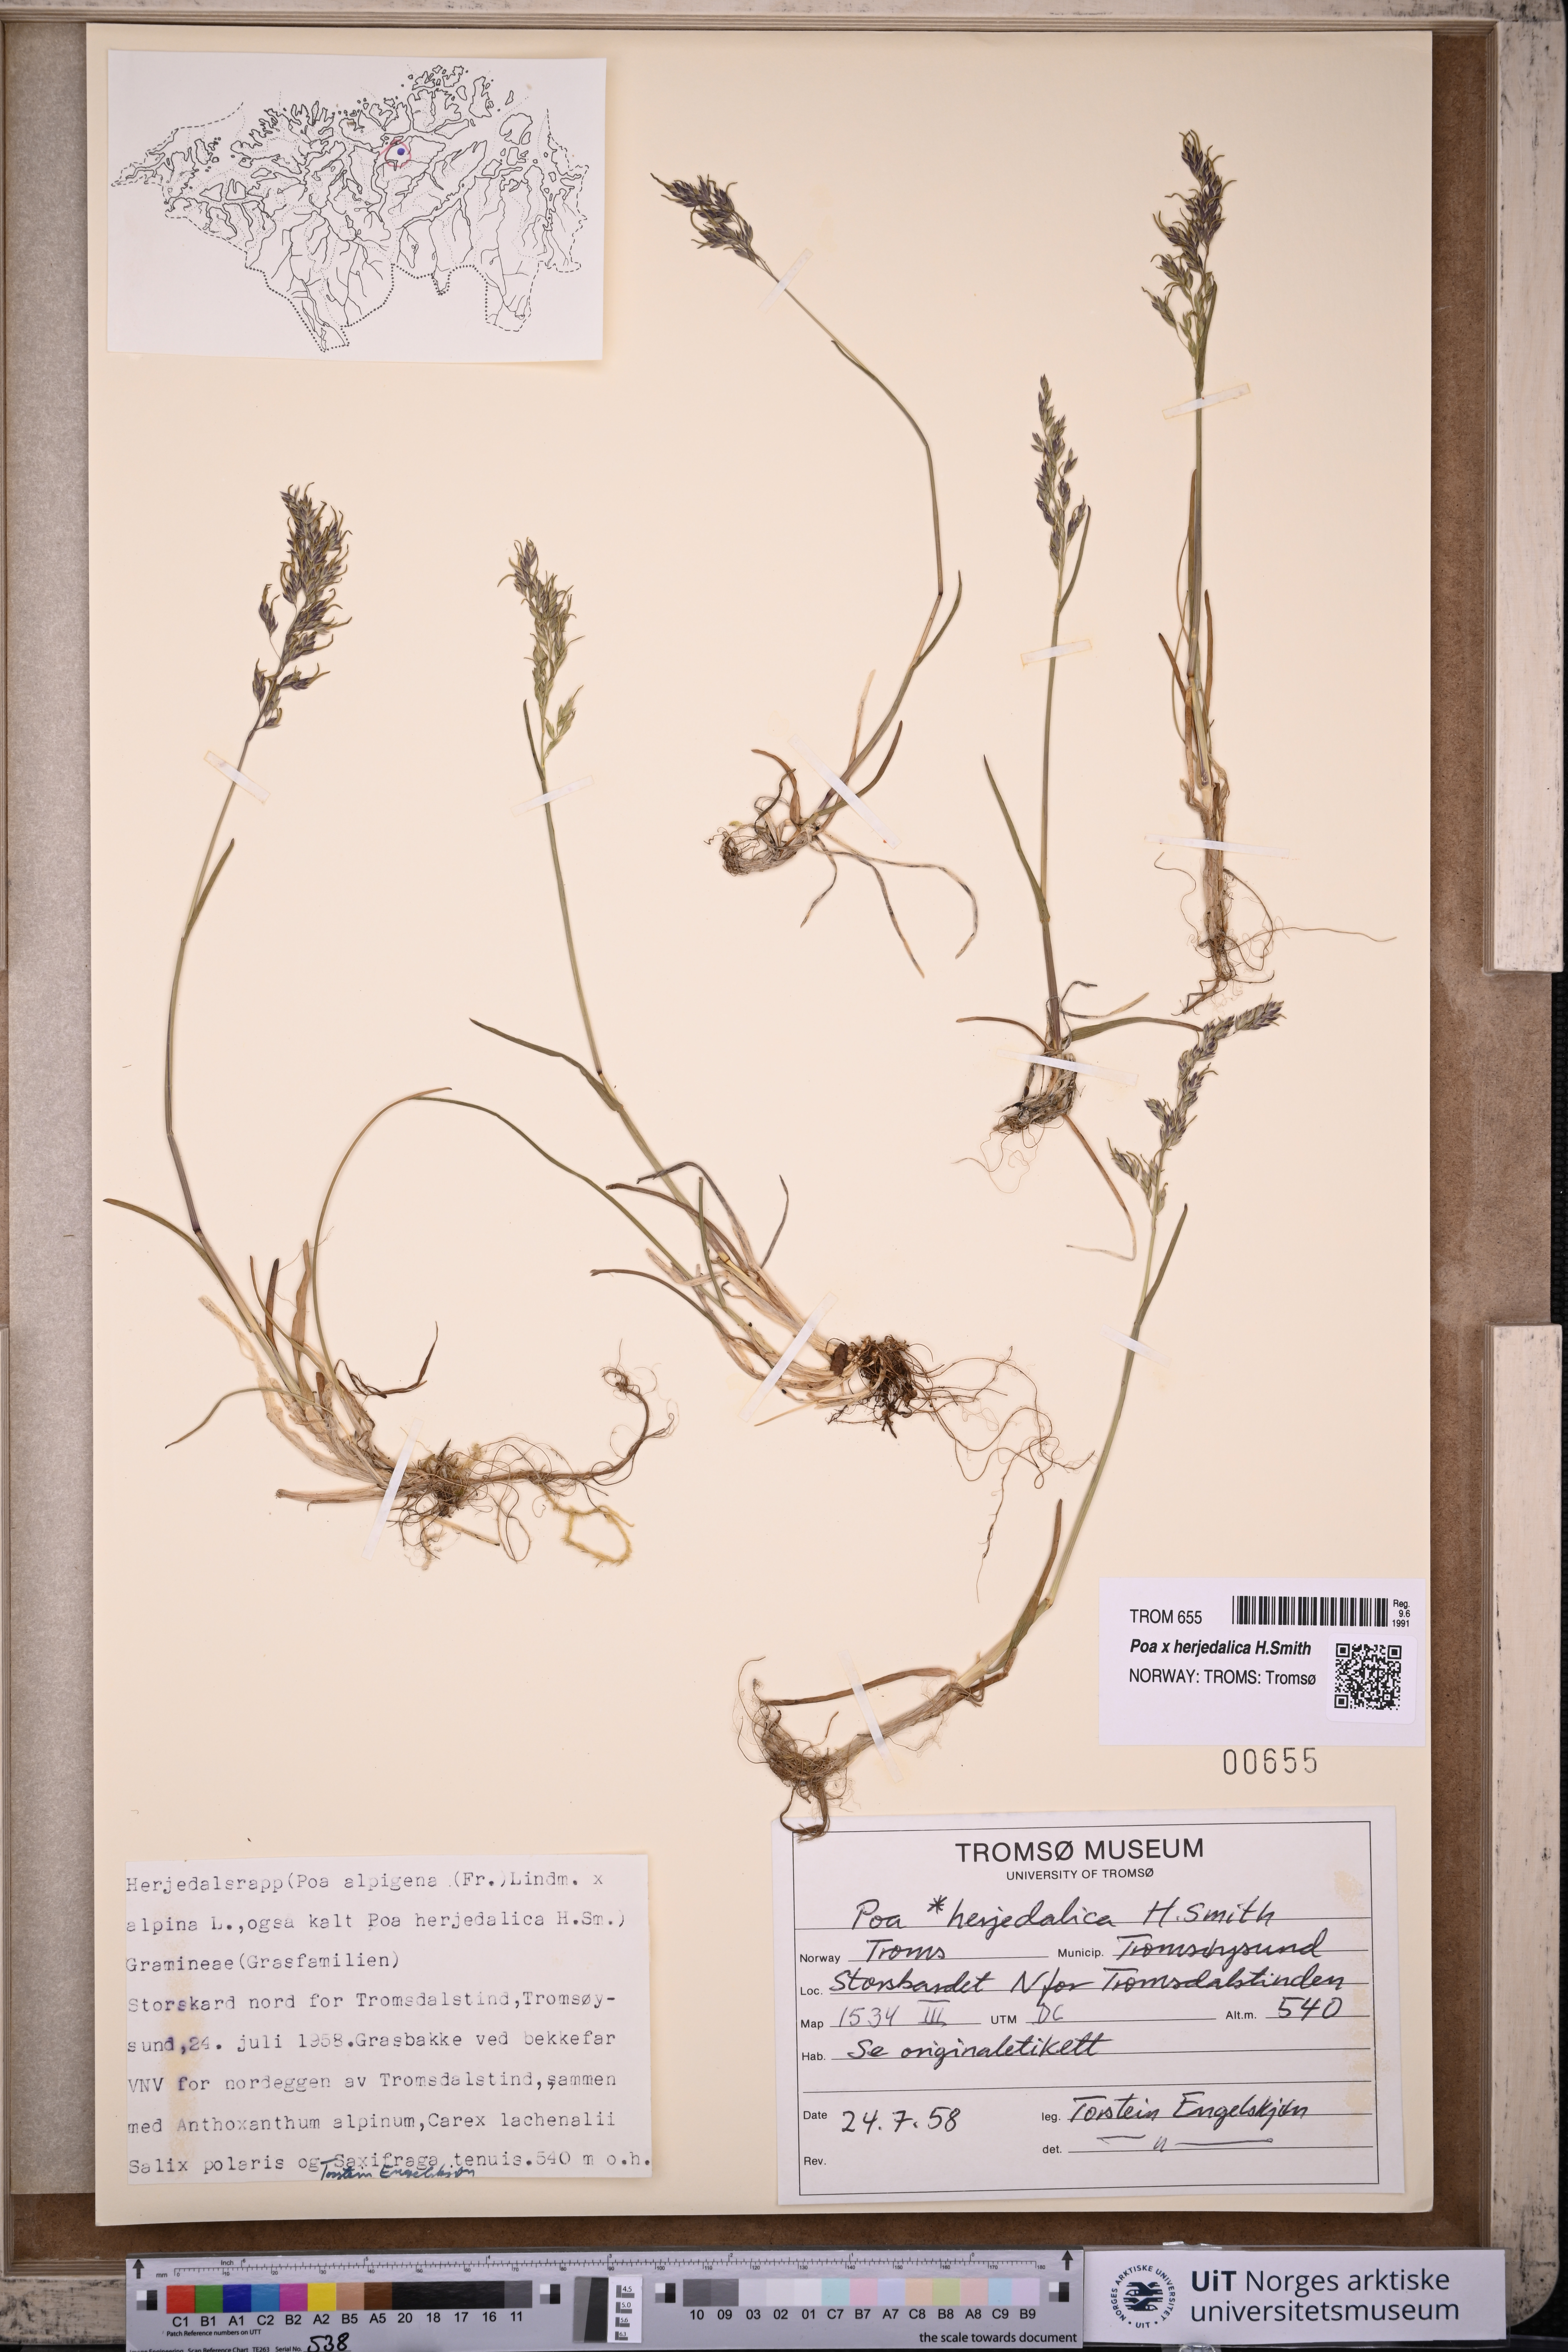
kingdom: Plantae
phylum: Tracheophyta
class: Liliopsida
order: Poales
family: Poaceae
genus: Poa
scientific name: Poa herjedalica
